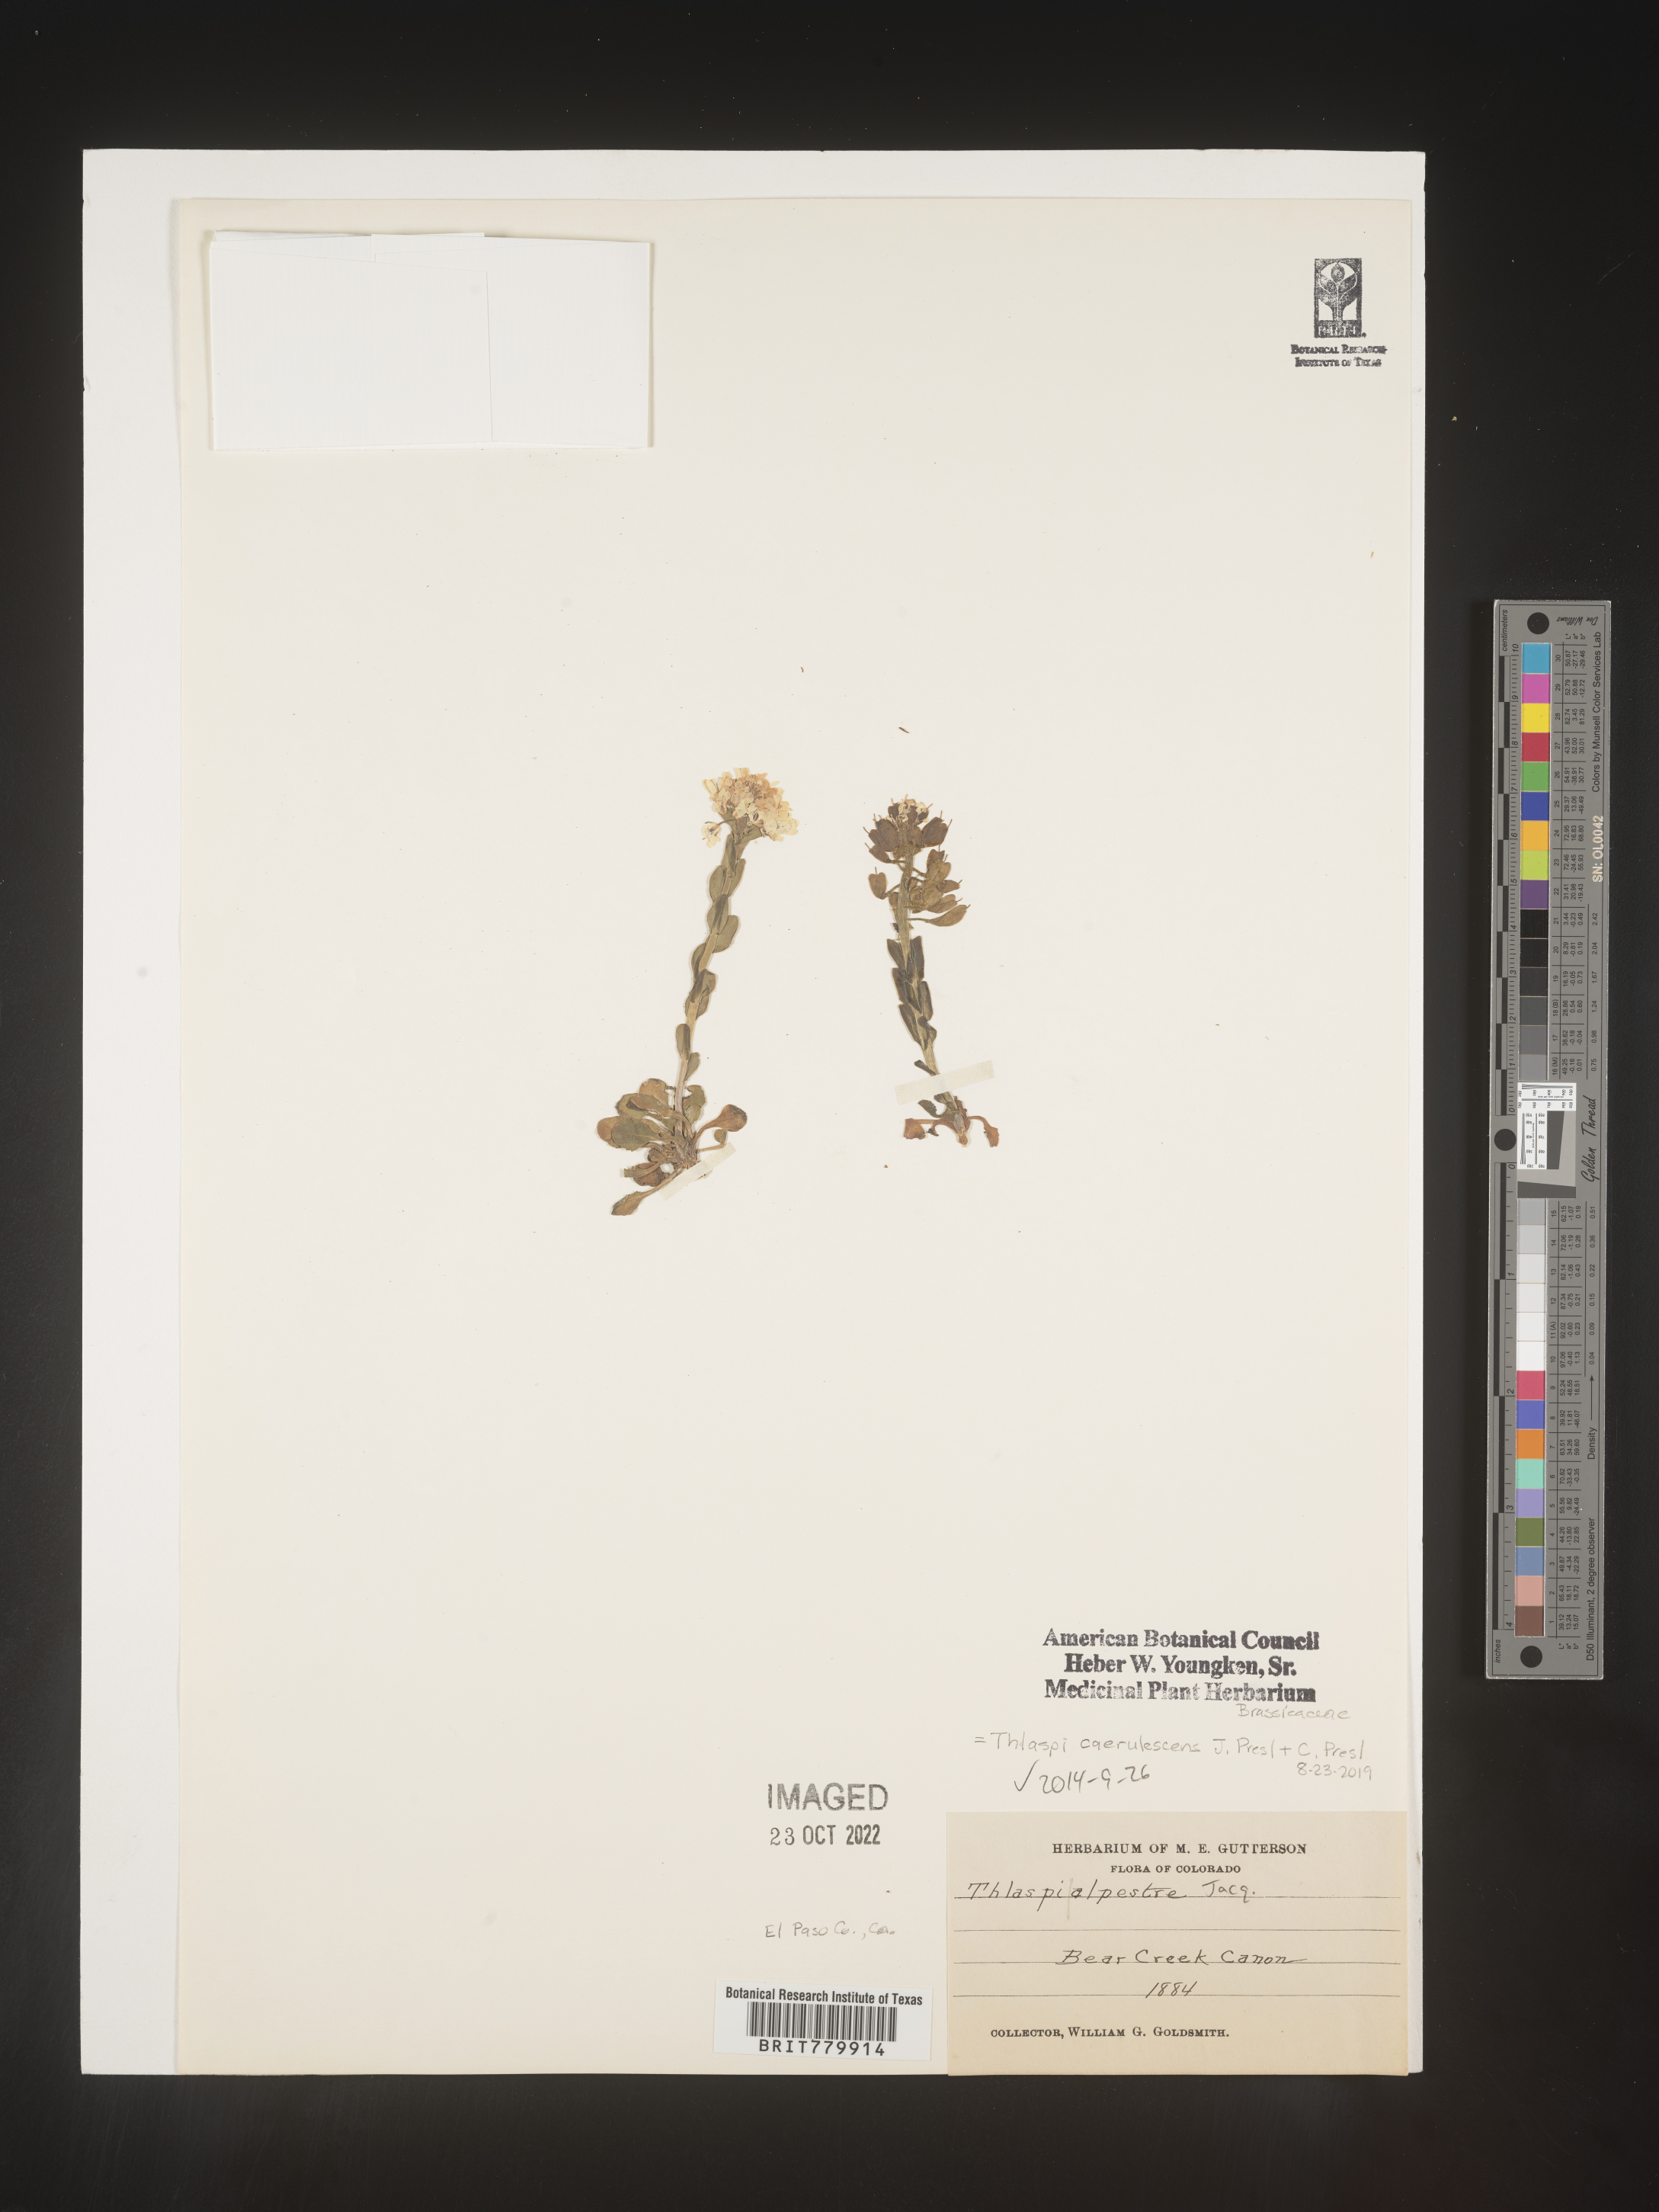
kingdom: Plantae
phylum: Tracheophyta
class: Magnoliopsida
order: Brassicales
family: Brassicaceae
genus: Thlaspi
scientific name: Thlaspi
